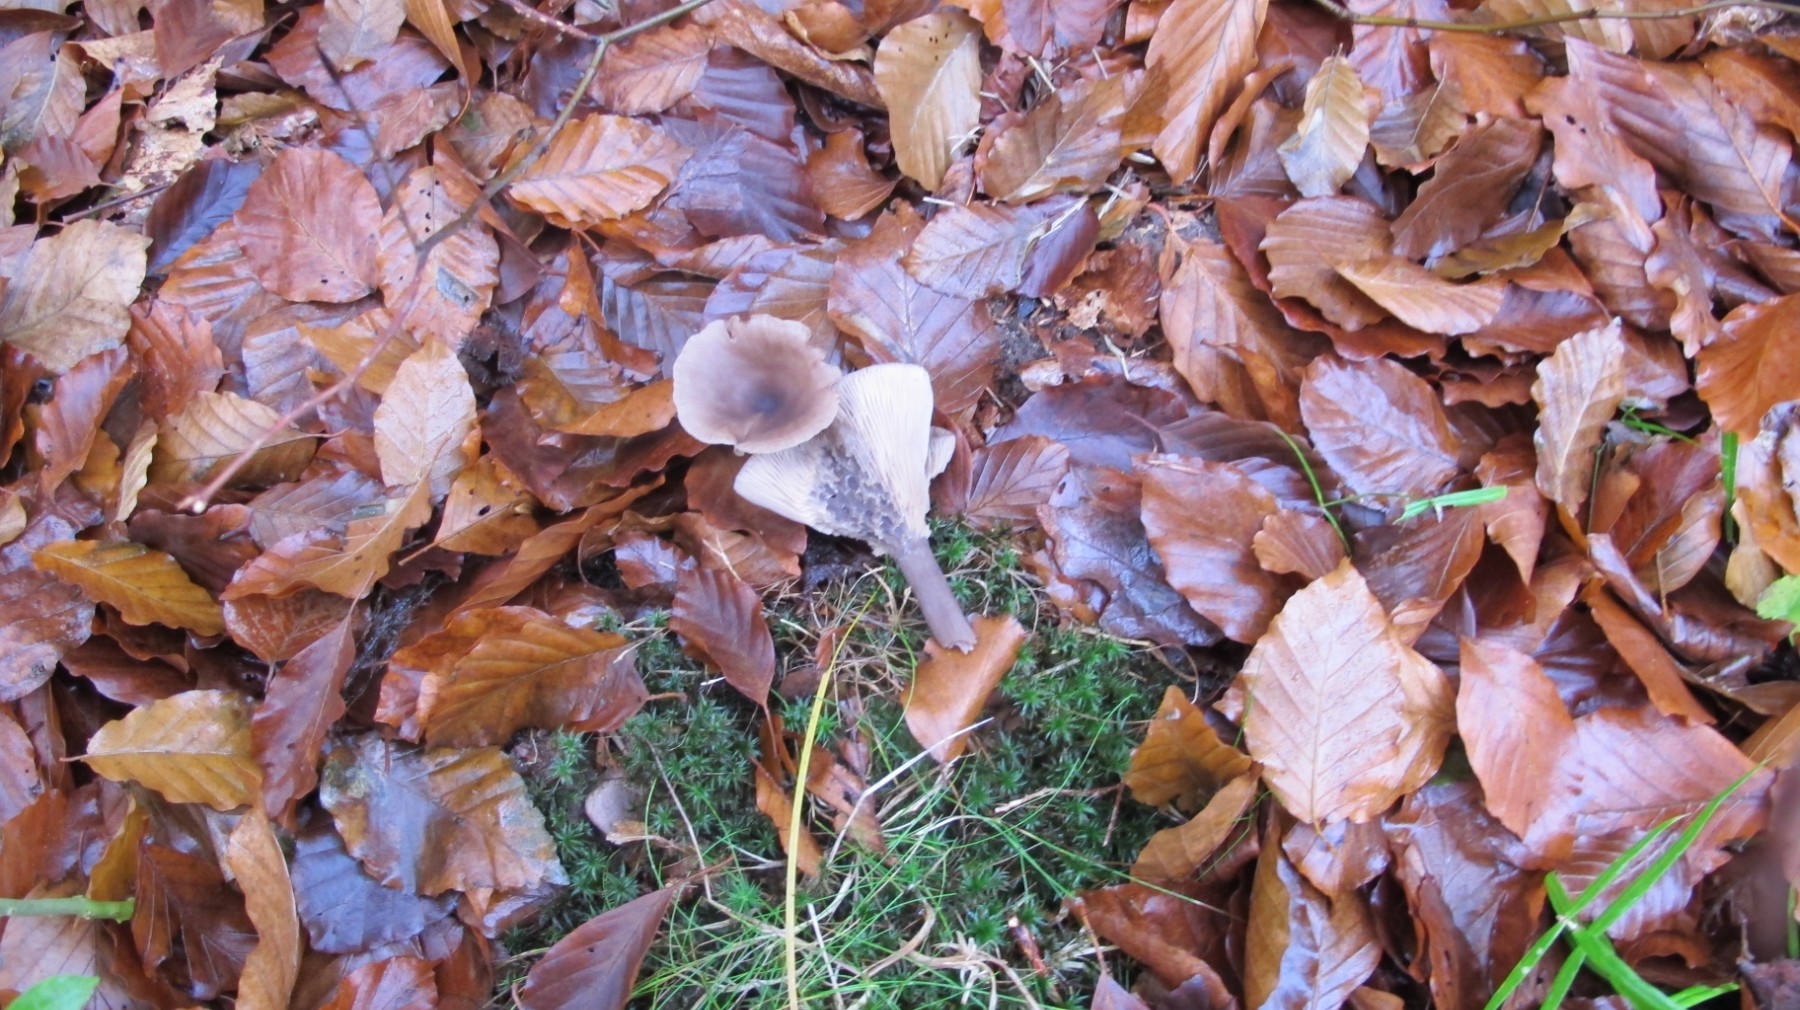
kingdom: Fungi
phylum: Basidiomycota
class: Agaricomycetes
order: Agaricales
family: Pseudoclitocybaceae
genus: Pseudoclitocybe
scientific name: Pseudoclitocybe cyathiformis
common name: almindelig bægertragthat
